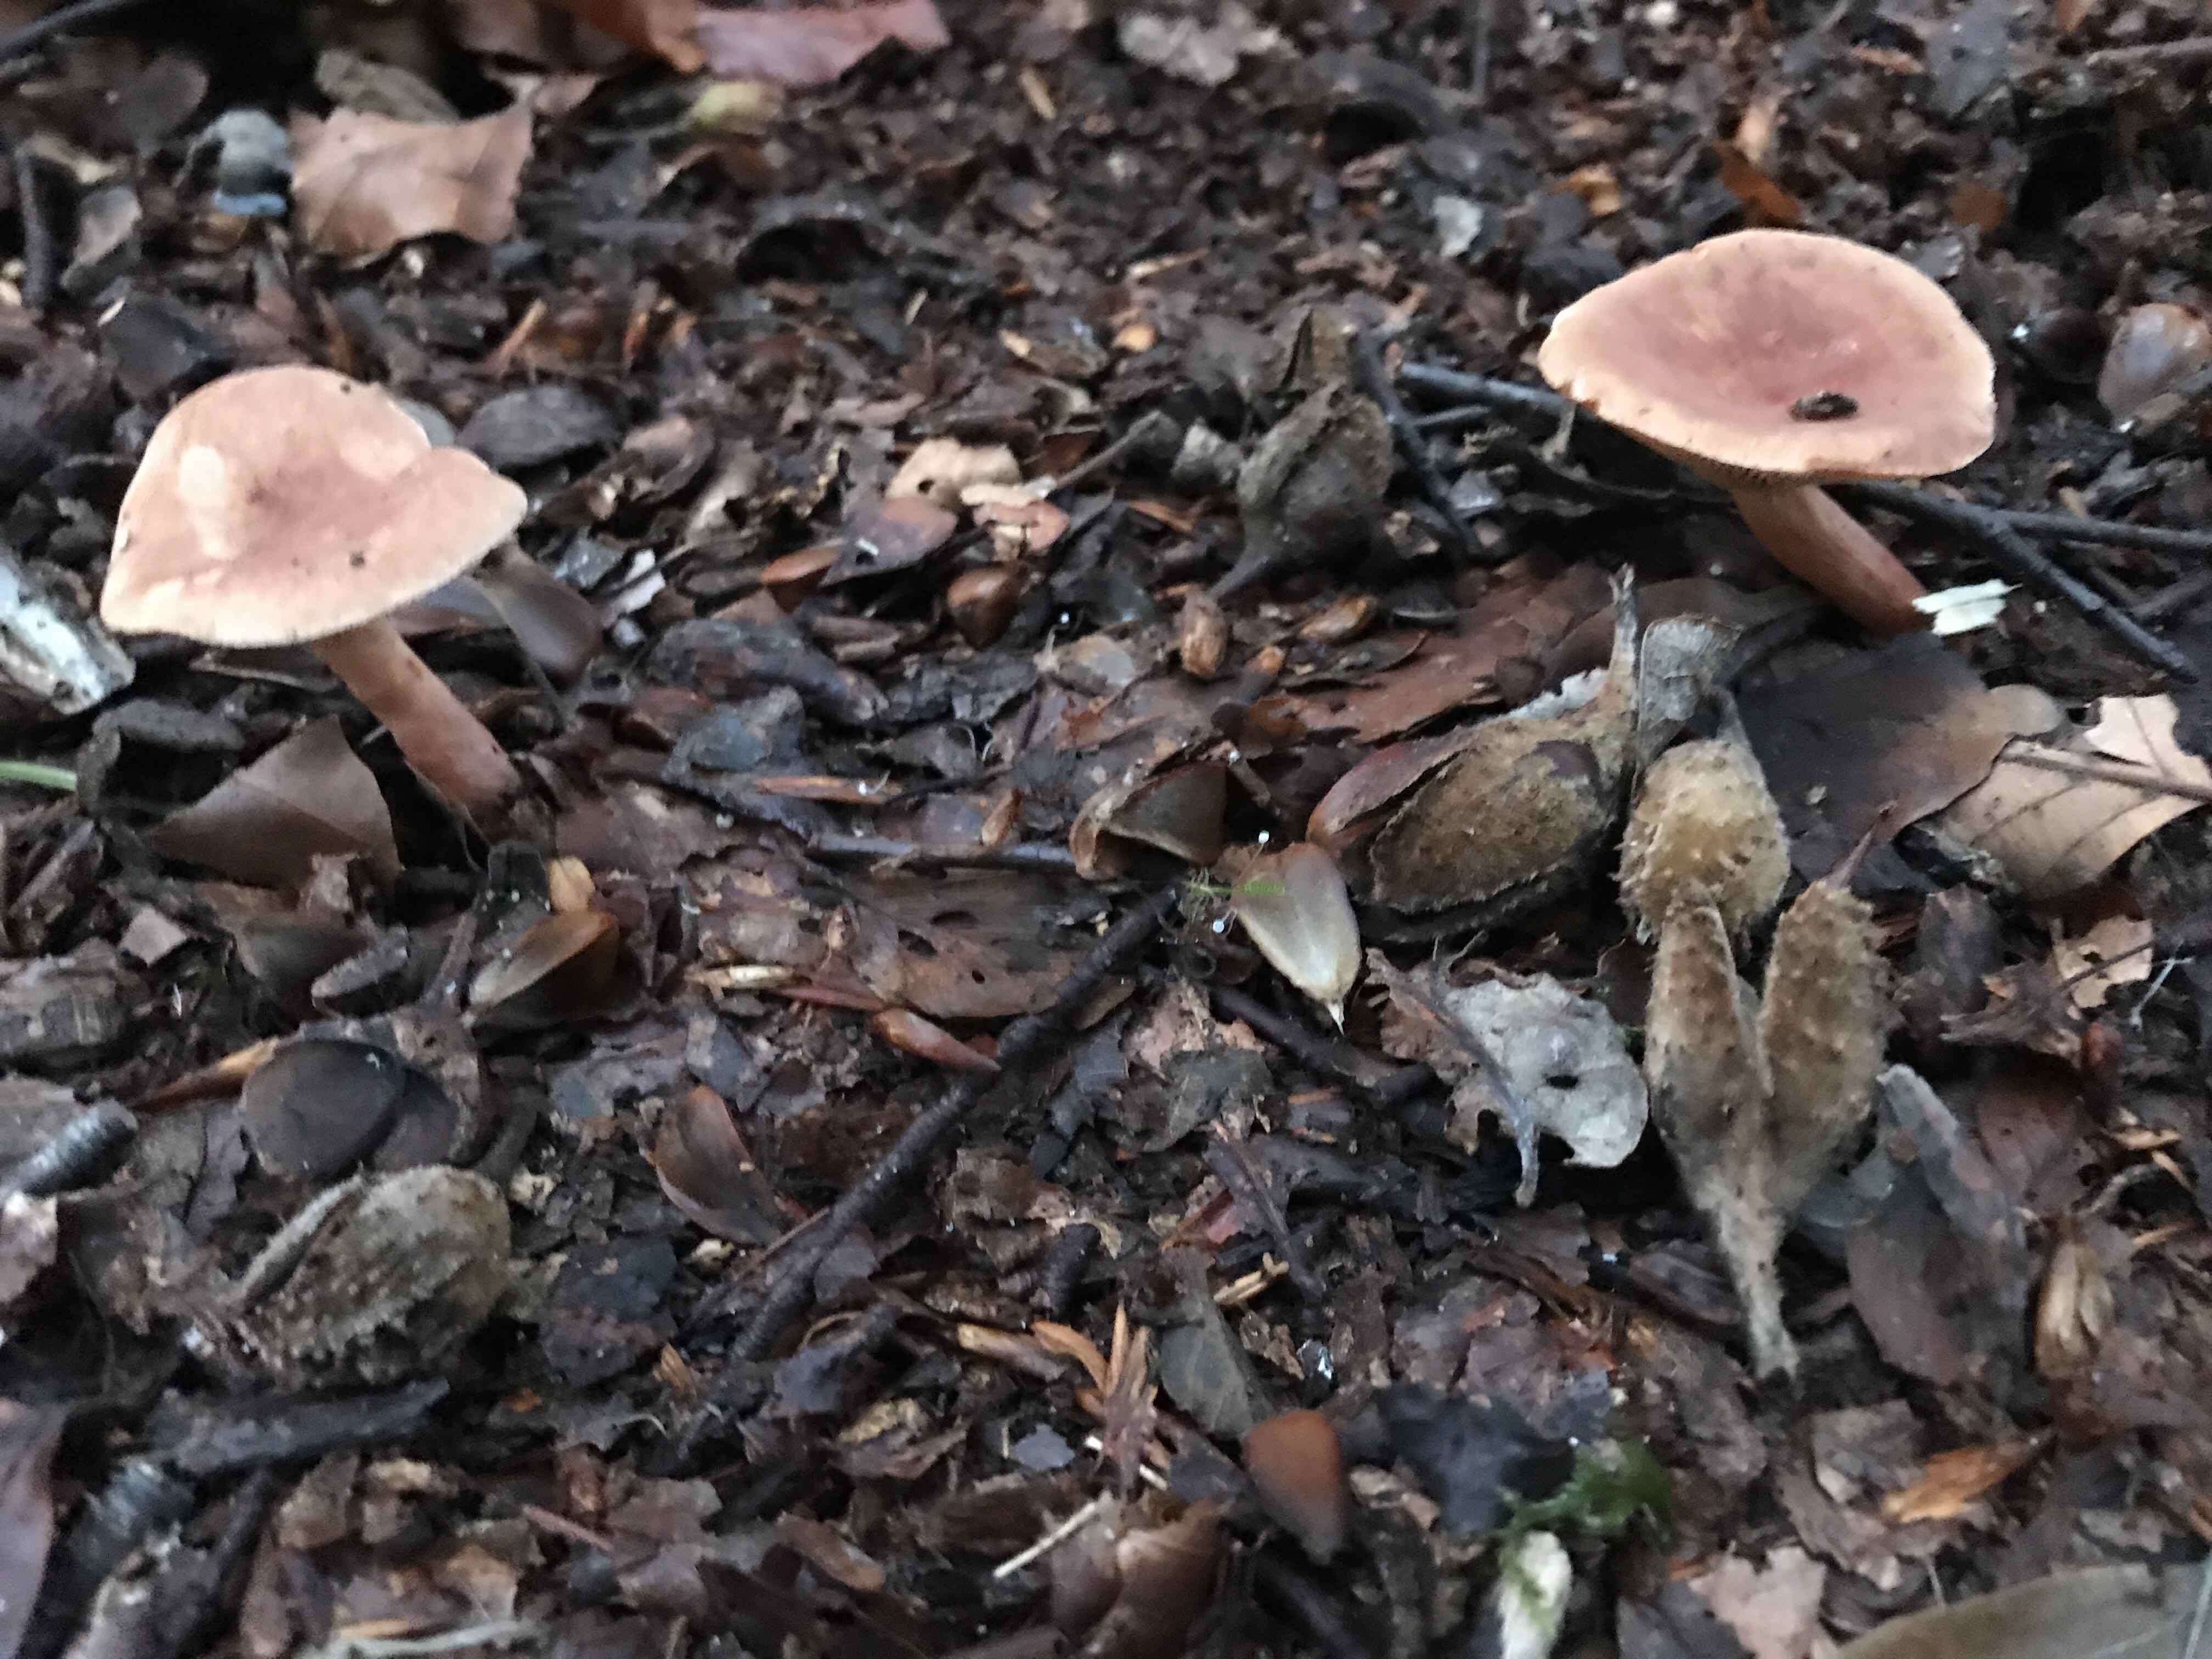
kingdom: Fungi
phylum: Basidiomycota
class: Agaricomycetes
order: Russulales
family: Russulaceae
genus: Lactarius
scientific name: Lactarius subdulcis
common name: sødlig mælkehat
